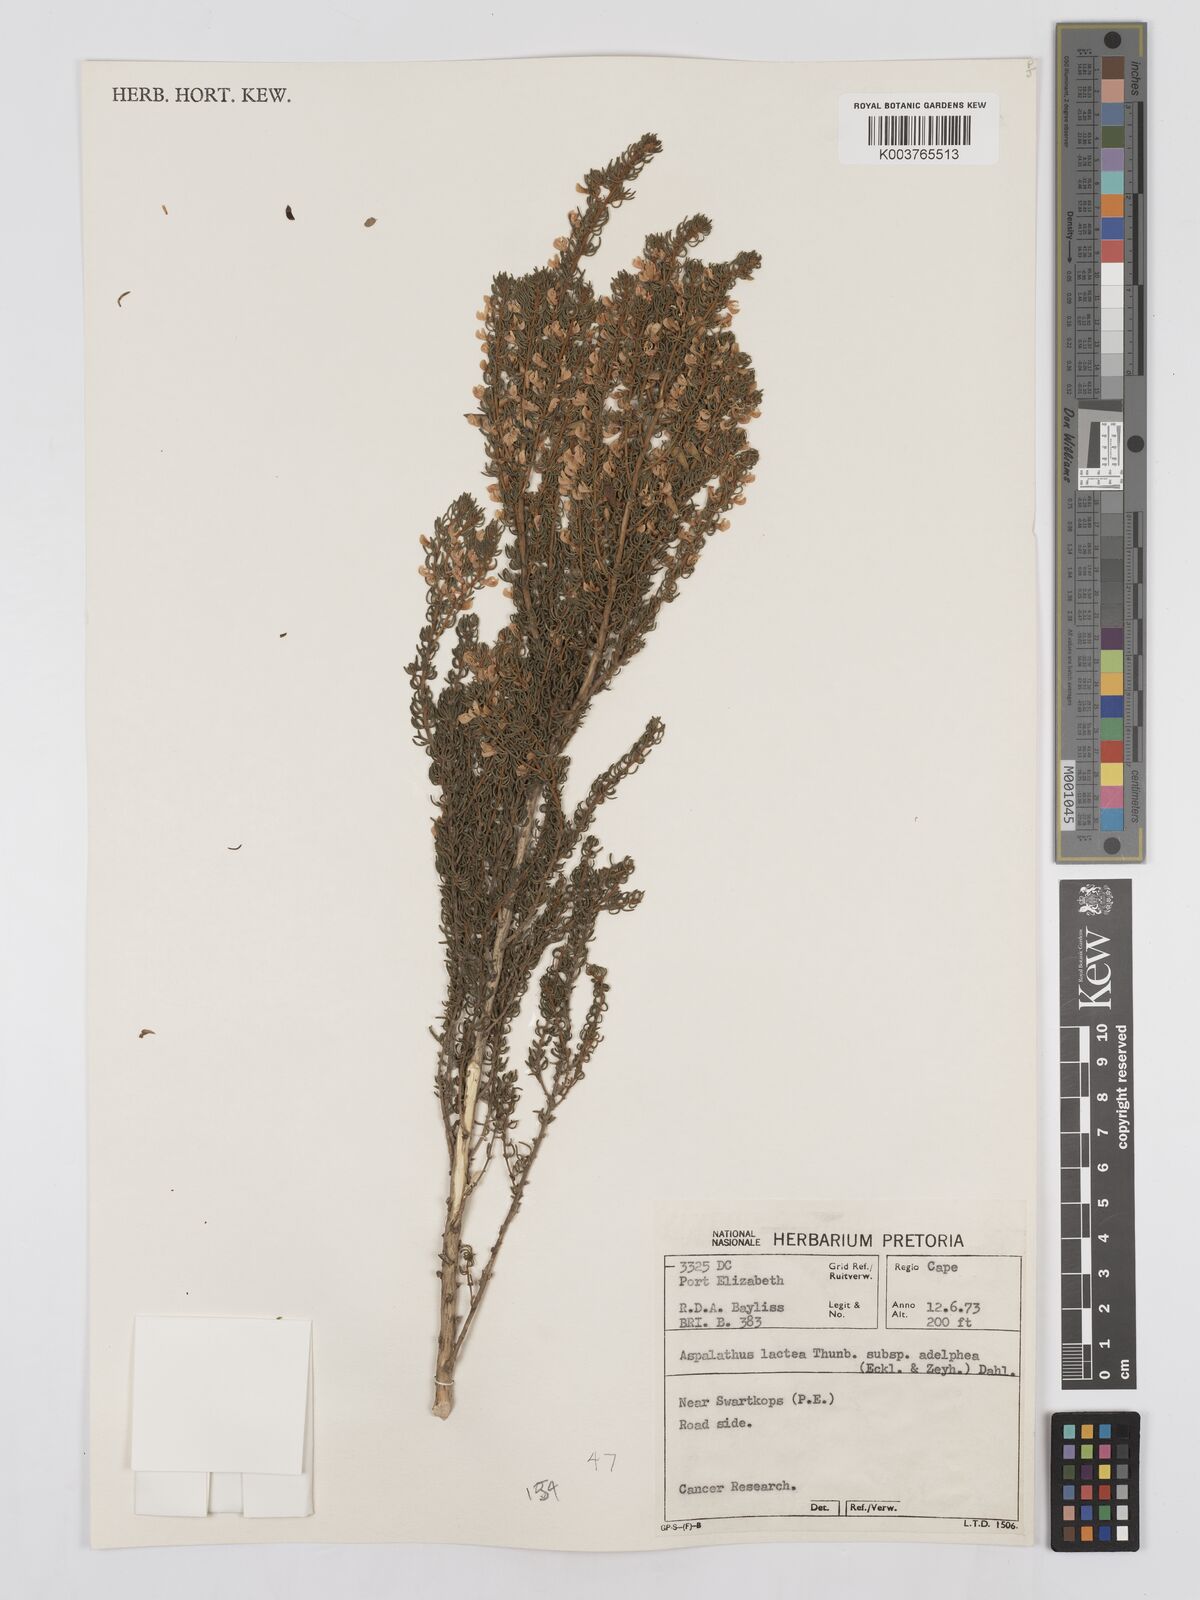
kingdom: Plantae
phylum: Tracheophyta
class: Magnoliopsida
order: Fabales
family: Fabaceae
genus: Aspalathus
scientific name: Aspalathus lactea
